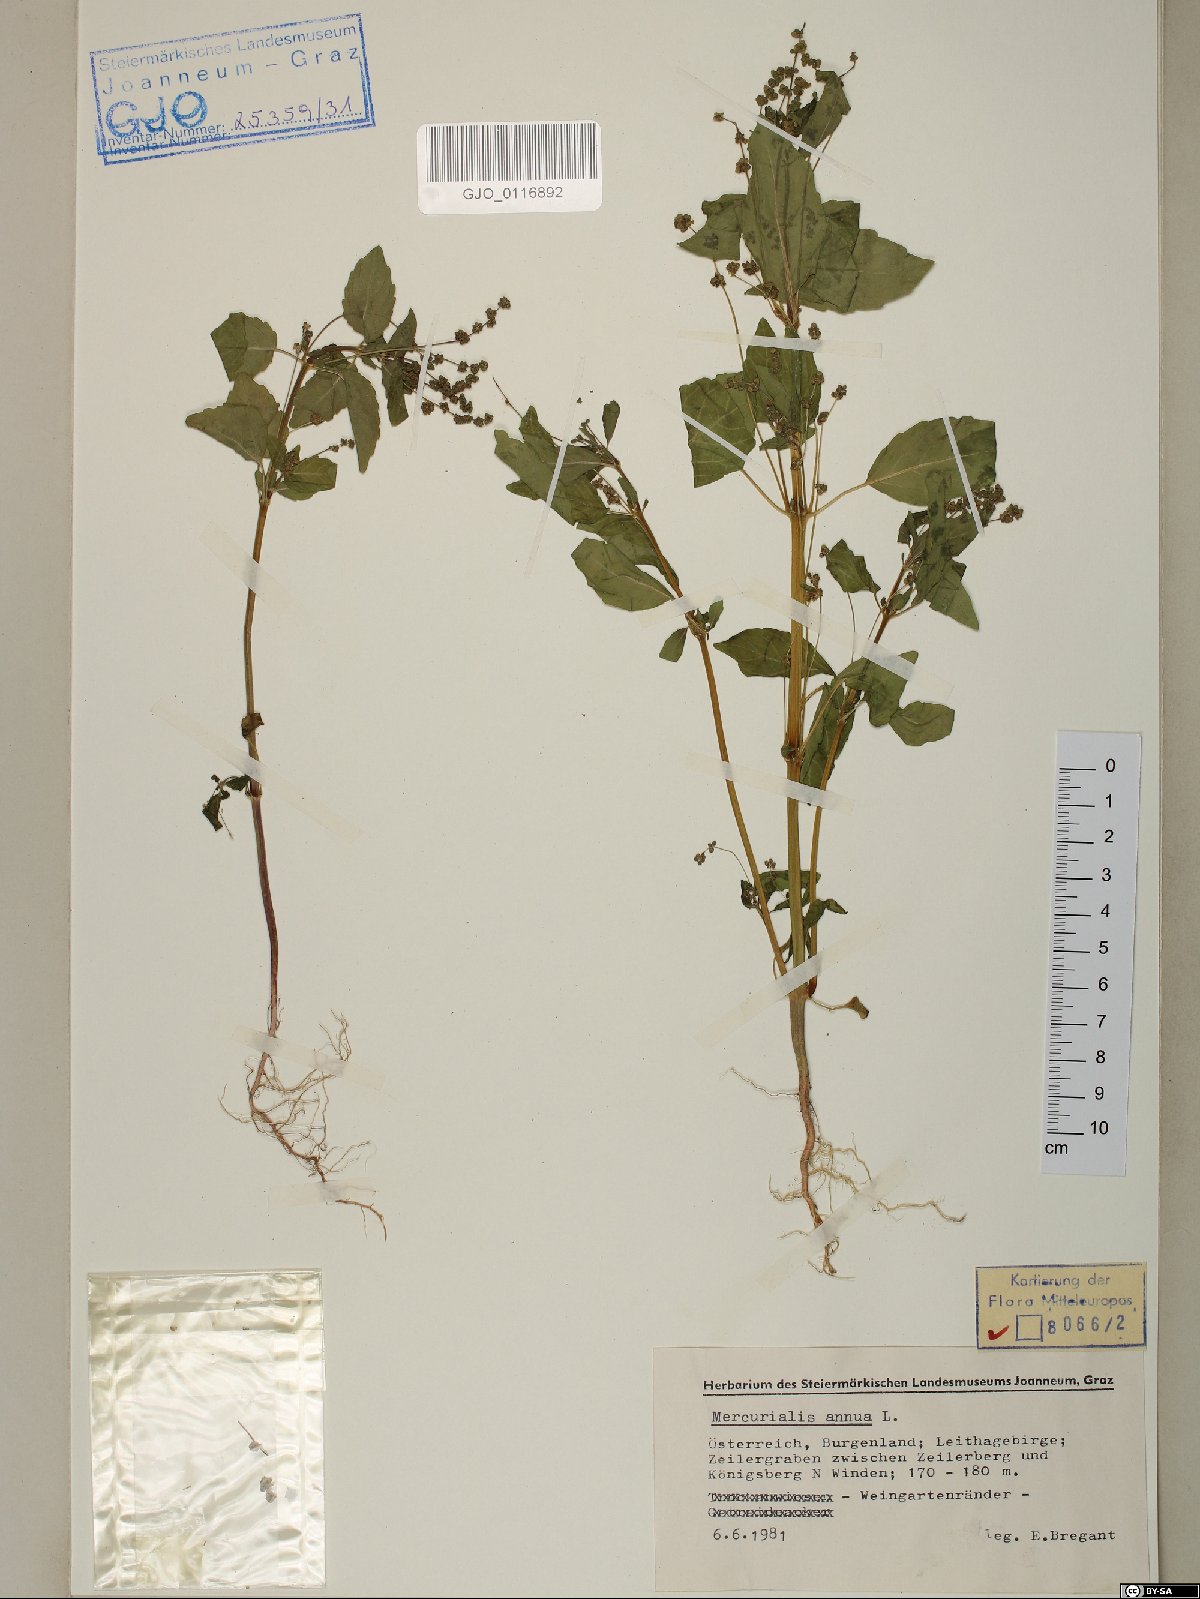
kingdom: Plantae
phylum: Tracheophyta
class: Magnoliopsida
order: Malpighiales
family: Euphorbiaceae
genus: Mercurialis
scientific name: Mercurialis annua
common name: Annual mercury
